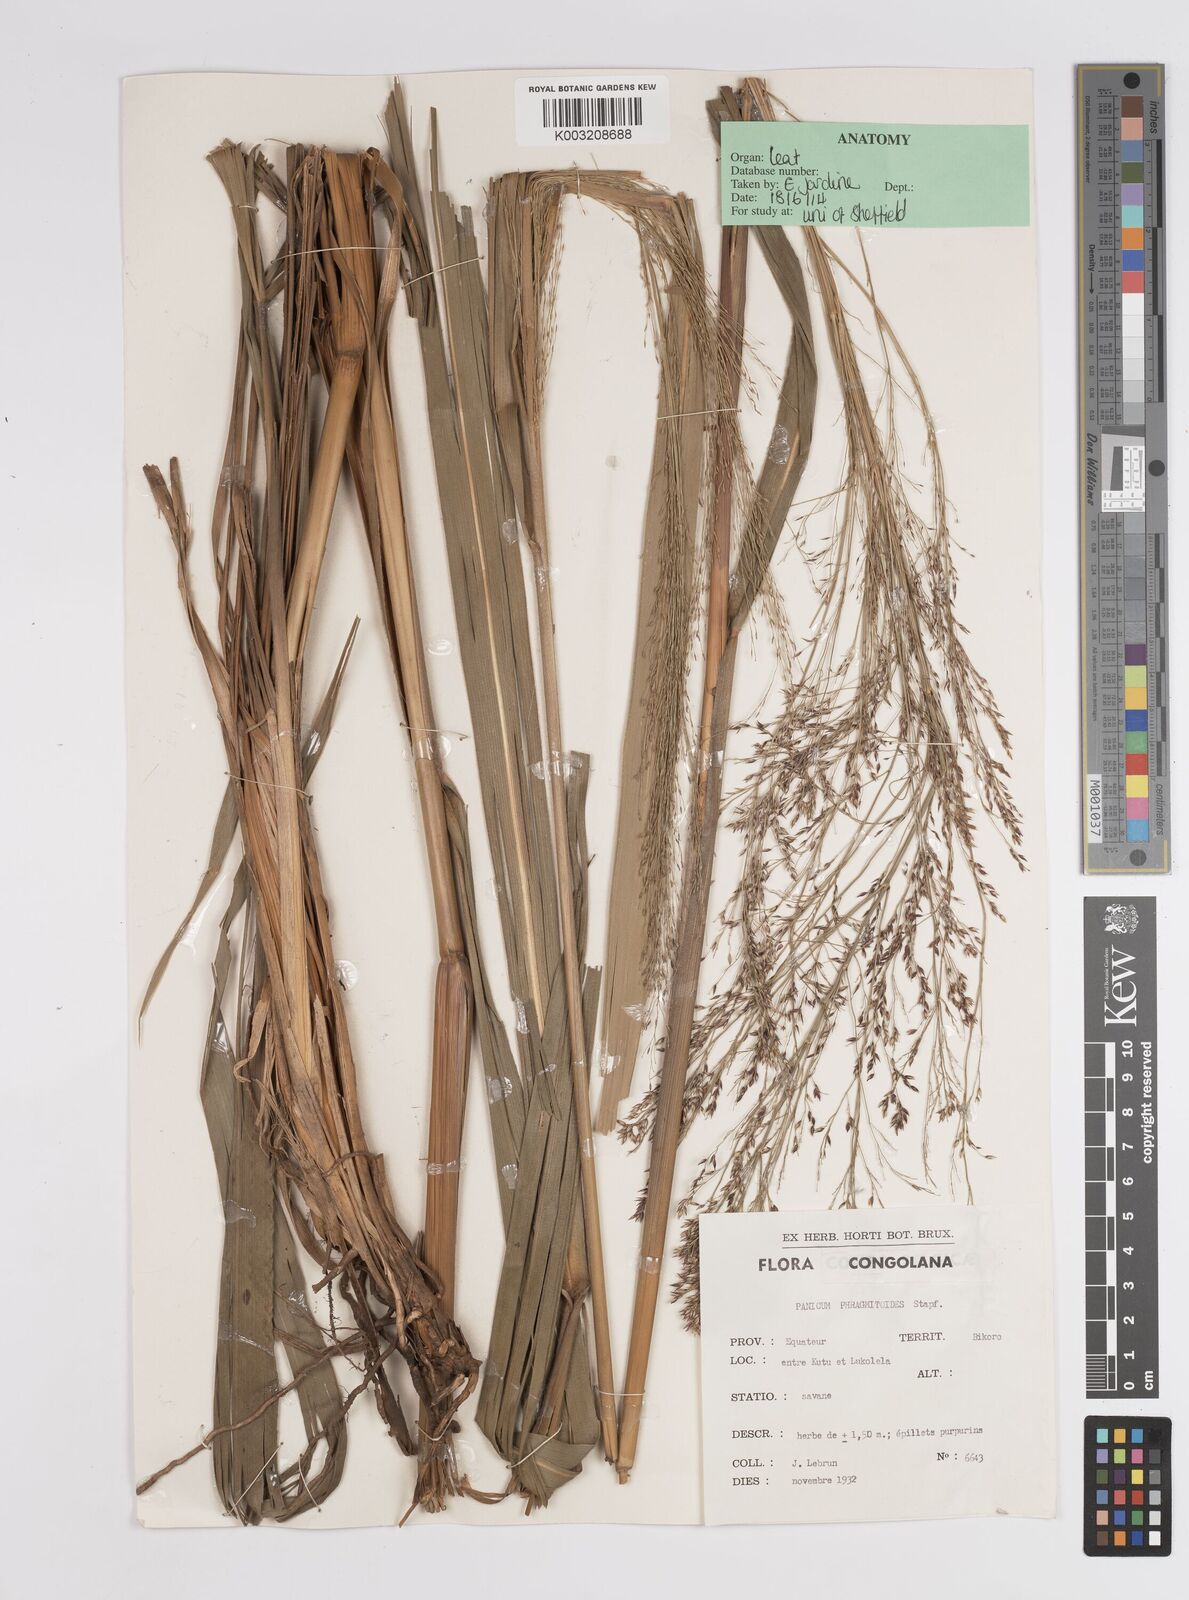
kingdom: Plantae
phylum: Tracheophyta
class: Liliopsida
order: Poales
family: Poaceae
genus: Panicum
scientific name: Panicum phragmitoides
